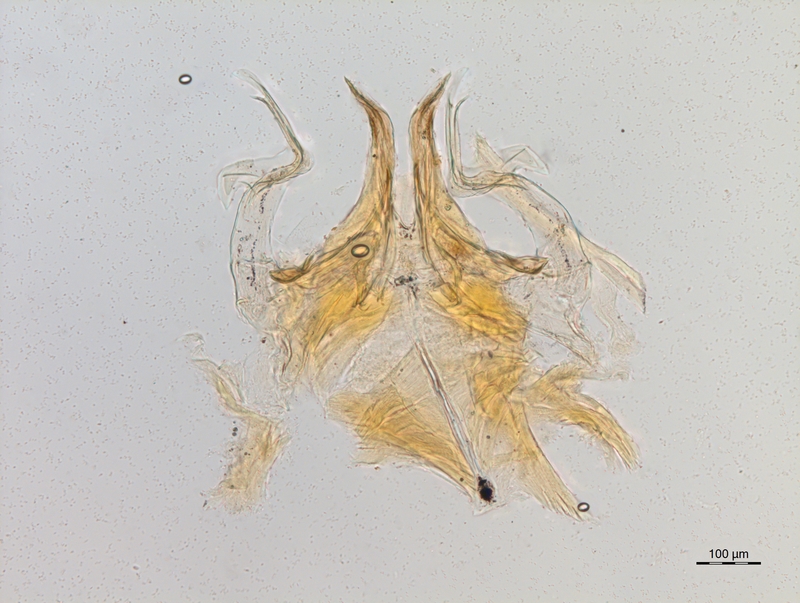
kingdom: Animalia
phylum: Arthropoda
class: Diplopoda
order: Chordeumatida
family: Craspedosomatidae
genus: Bomogona
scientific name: Bomogona lombardica
